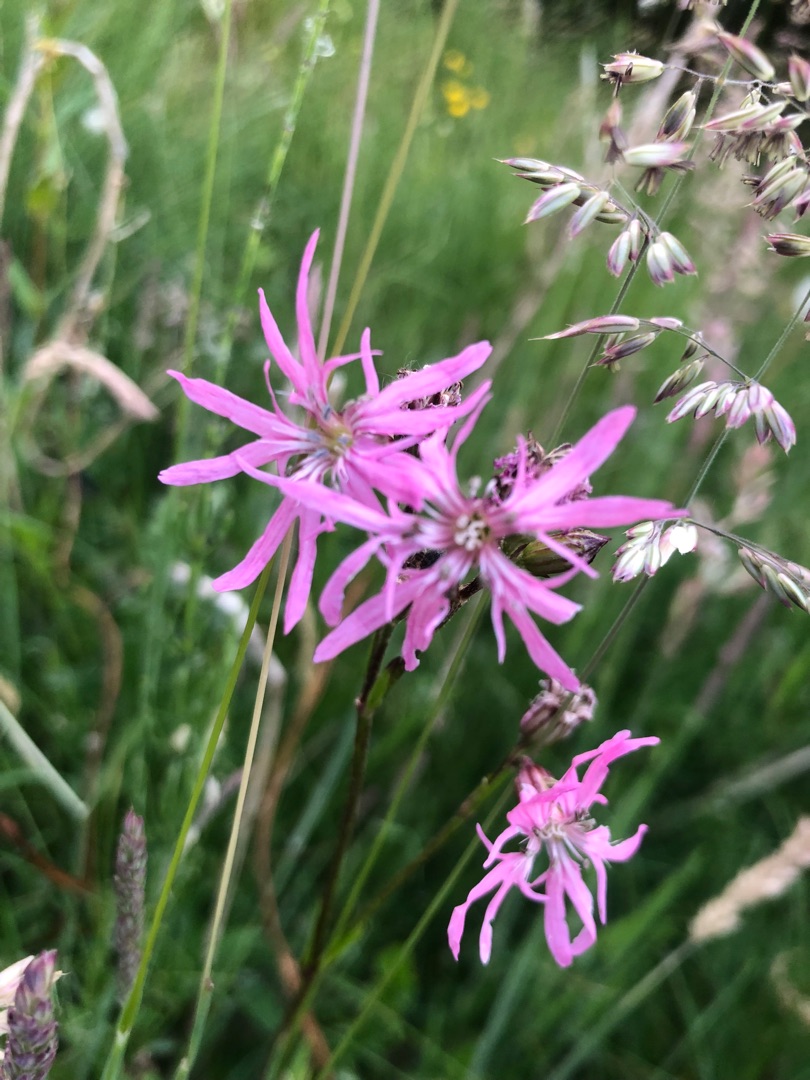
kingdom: Plantae
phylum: Tracheophyta
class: Magnoliopsida
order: Caryophyllales
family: Caryophyllaceae
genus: Silene
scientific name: Silene flos-cuculi
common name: Trævlekrone
